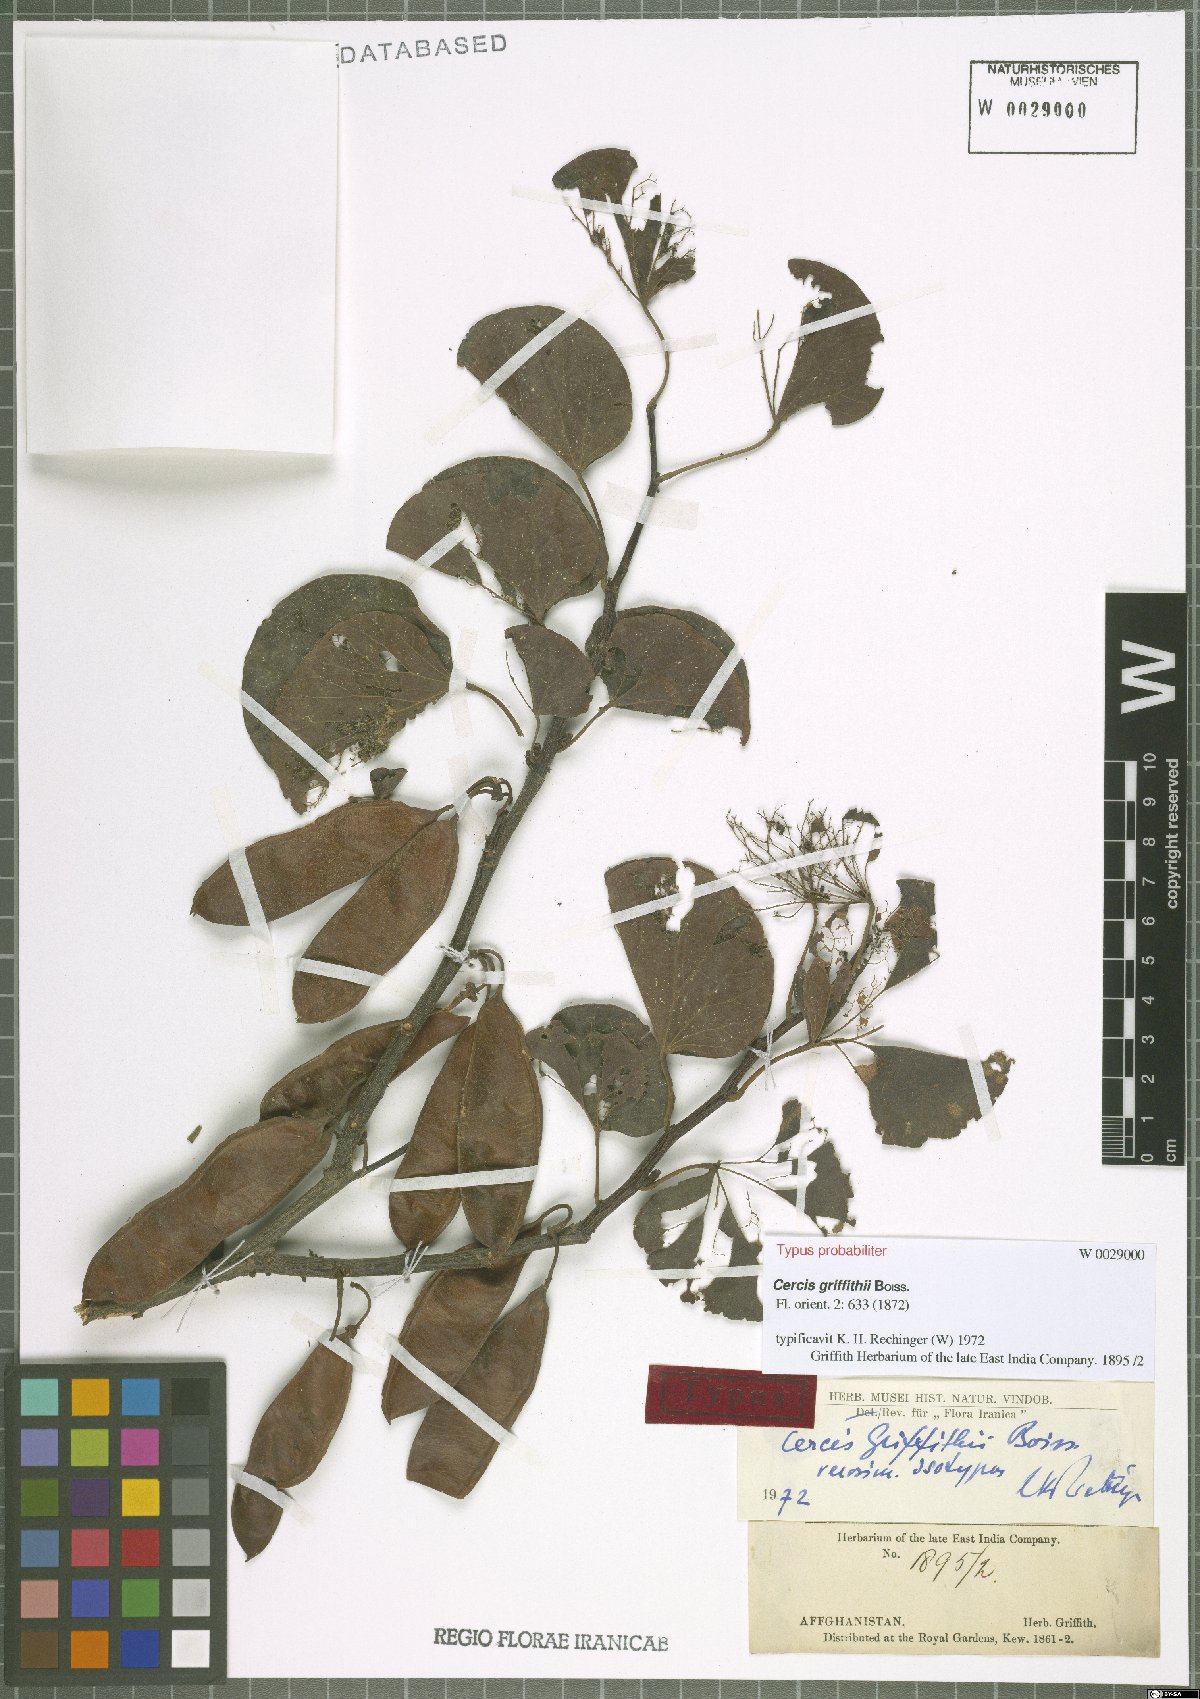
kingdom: Plantae
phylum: Tracheophyta
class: Magnoliopsida
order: Fabales
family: Fabaceae
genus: Cercis
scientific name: Cercis griffithii
